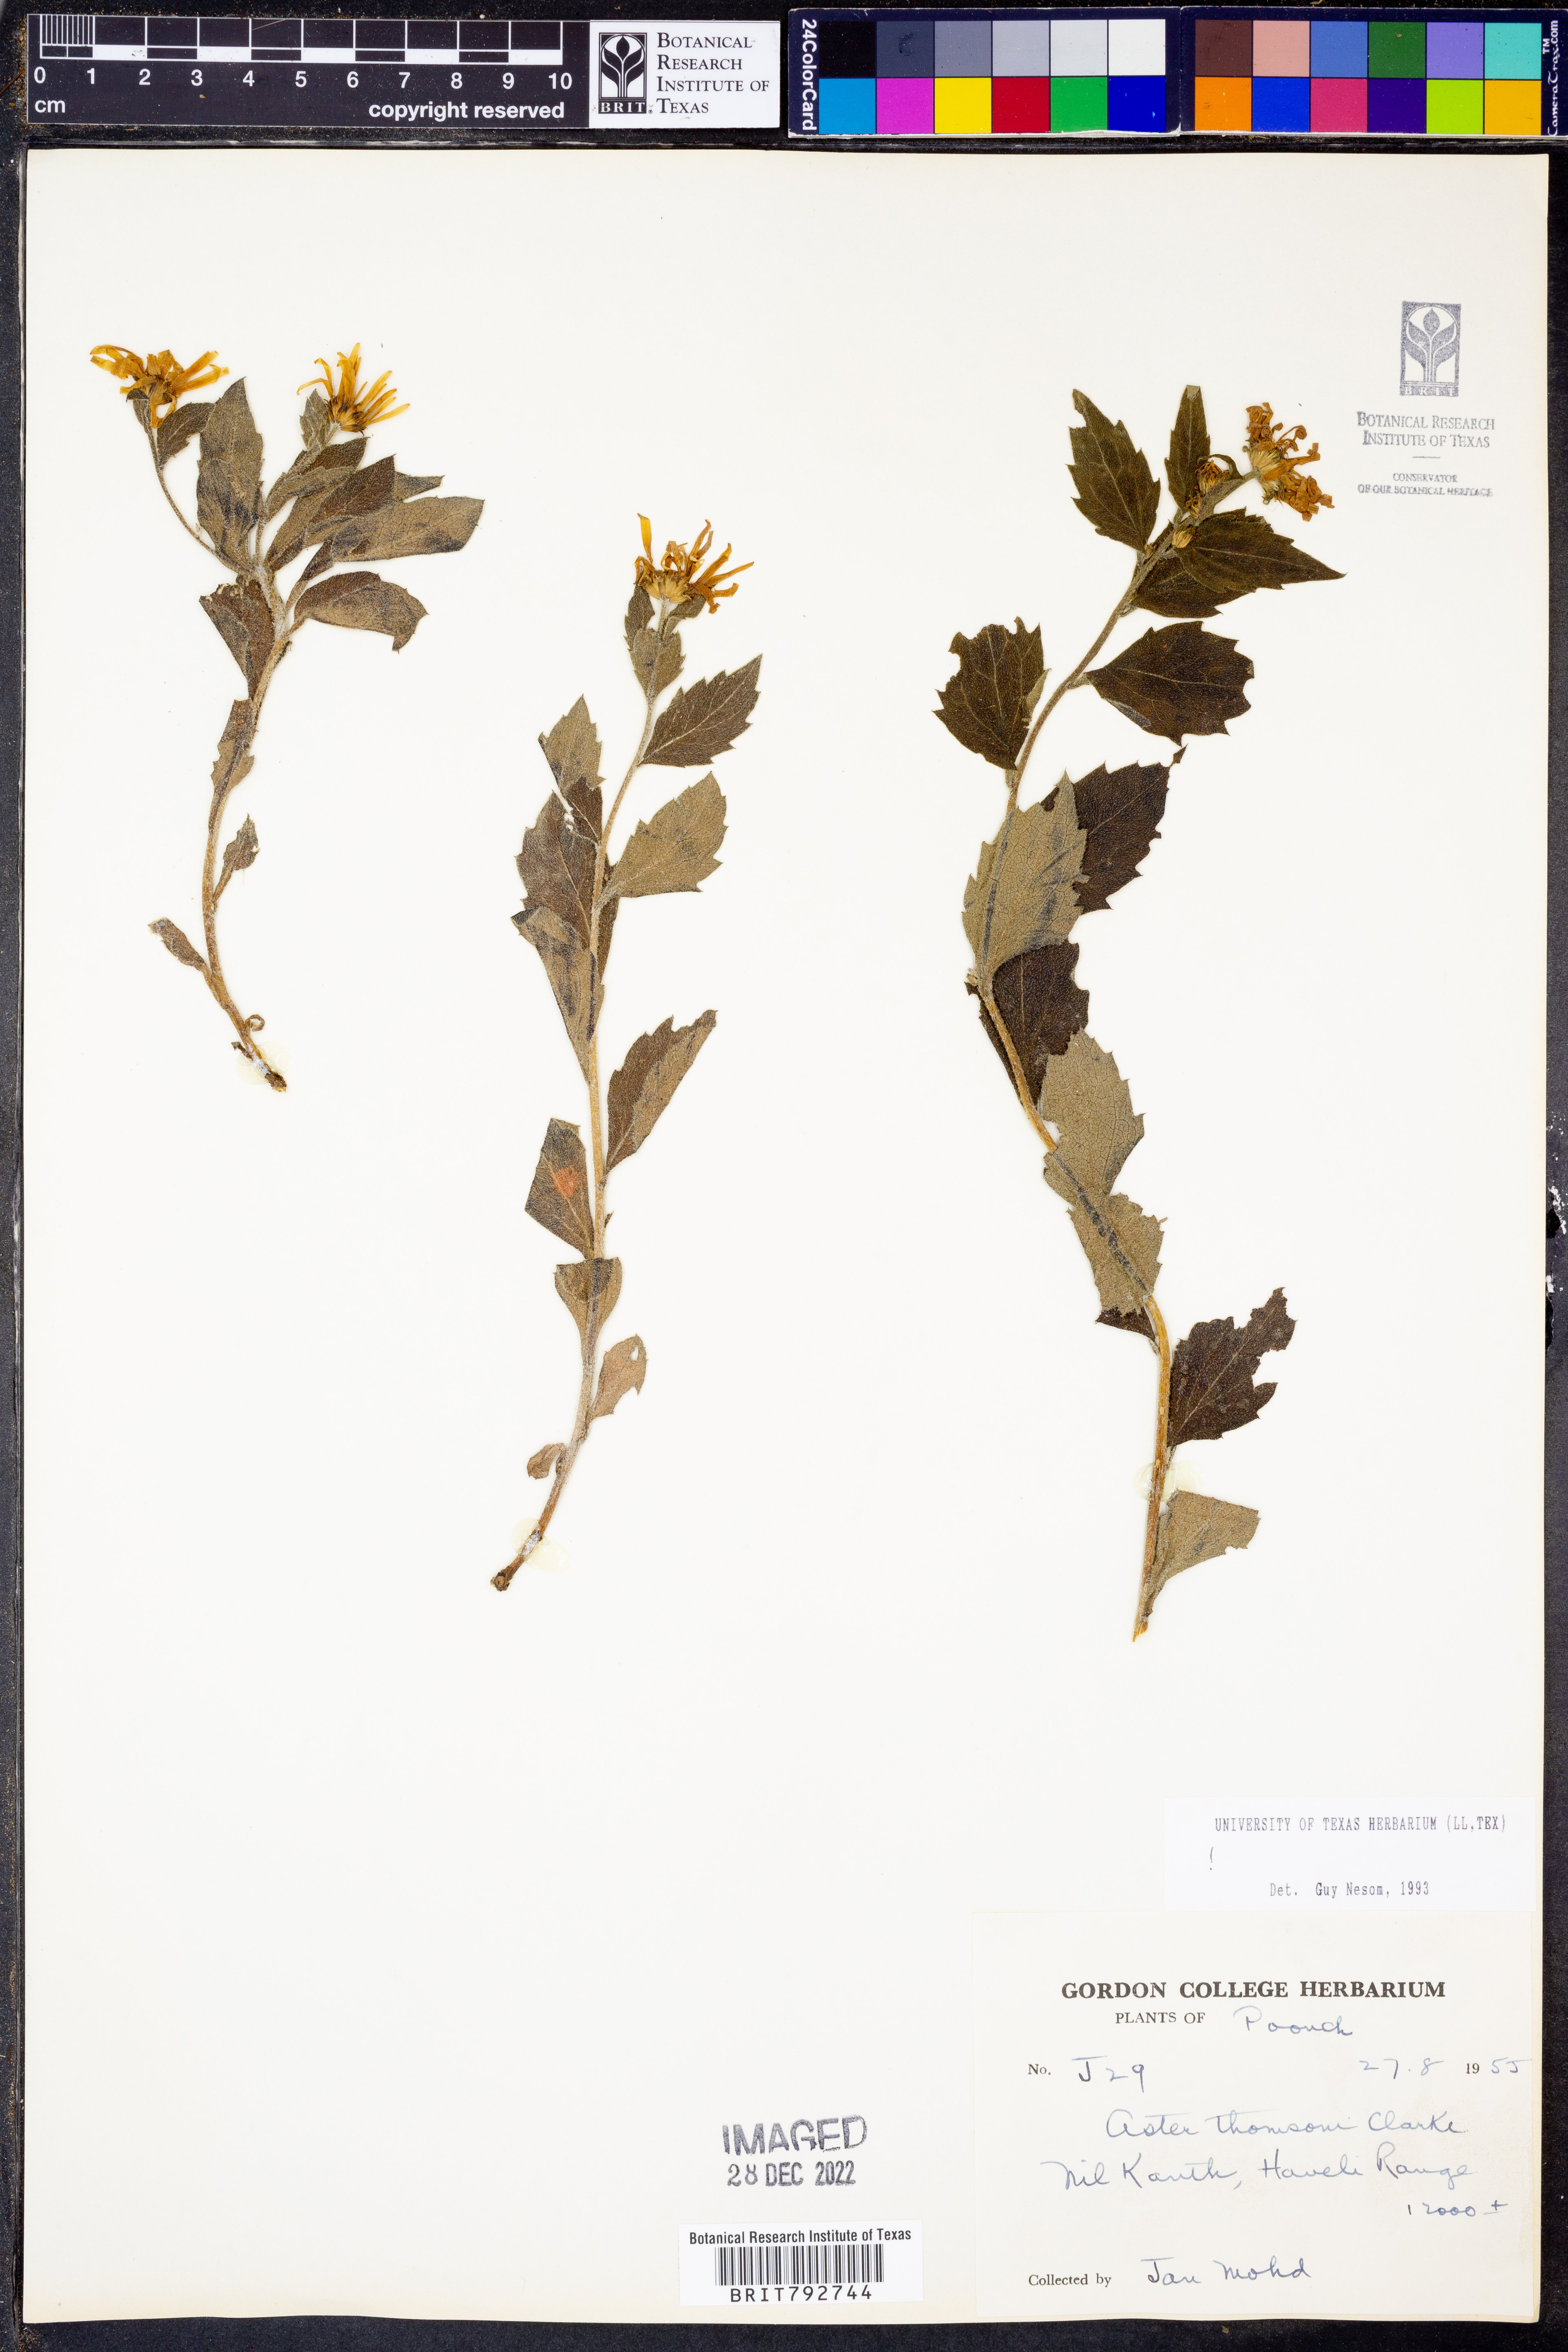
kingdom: Plantae
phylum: Tracheophyta
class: Magnoliopsida
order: Asterales
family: Asteraceae
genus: Cordiofontis
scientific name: Cordiofontis flexuosa
